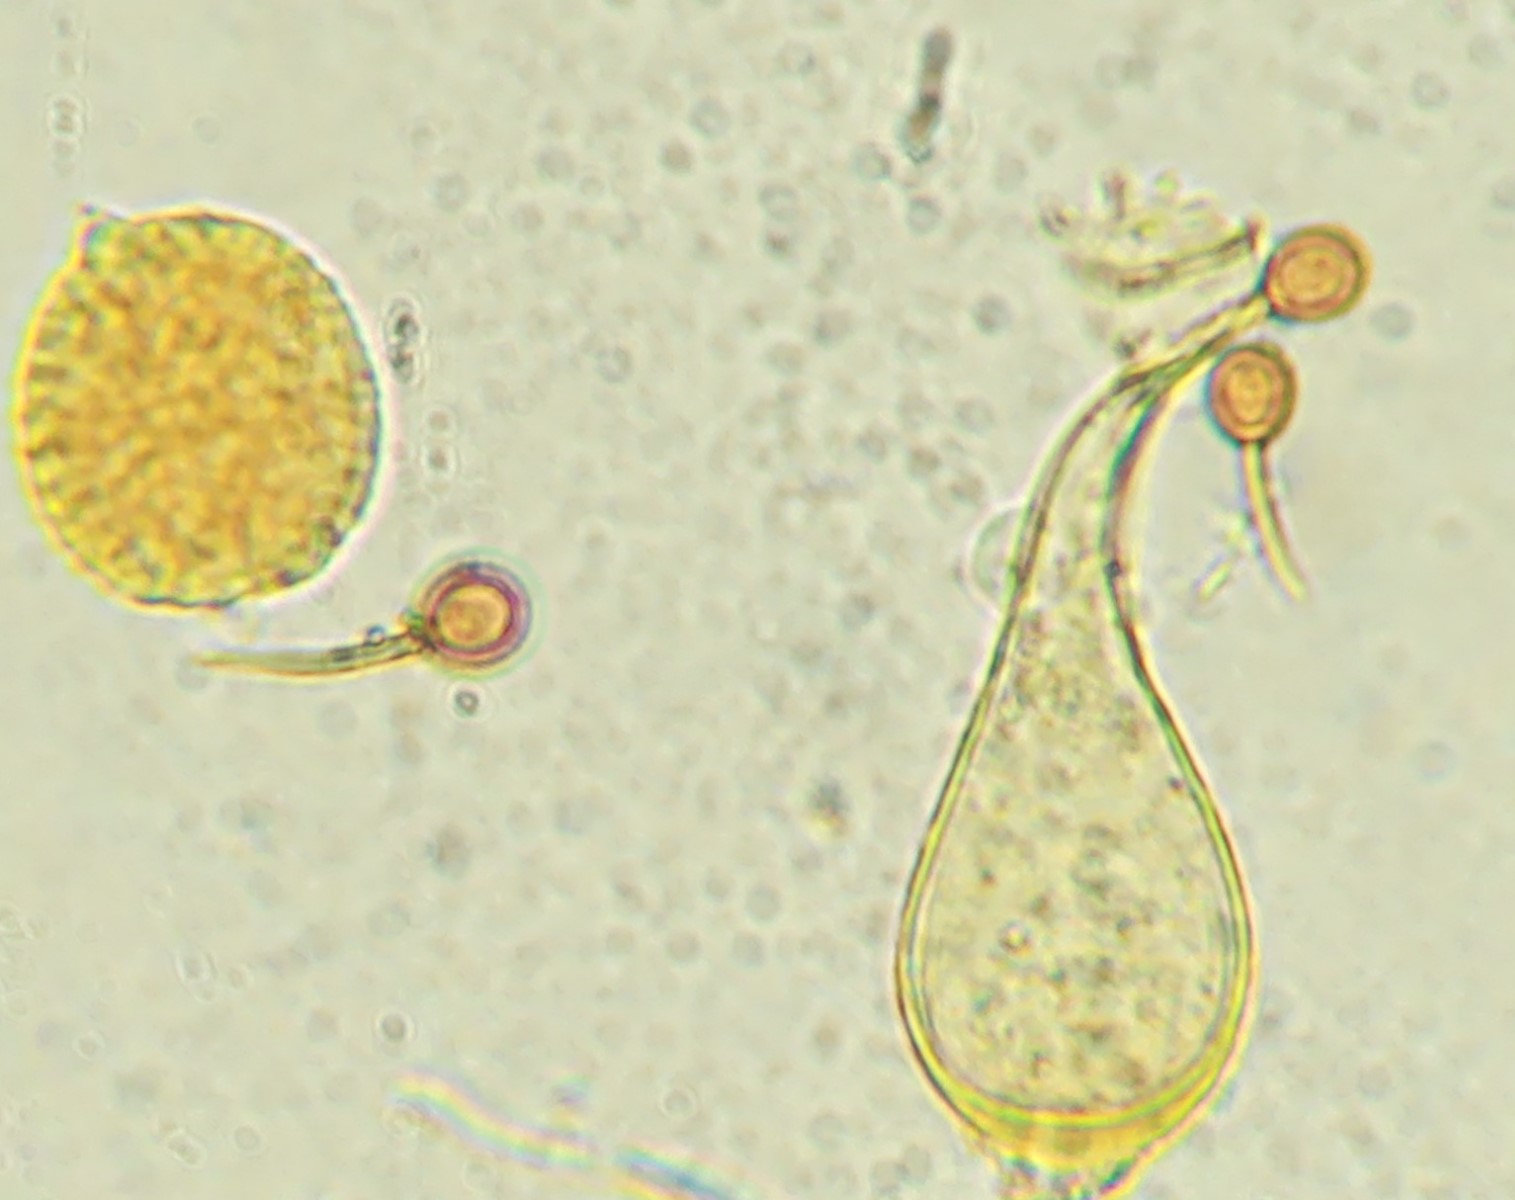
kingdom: Fungi
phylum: Basidiomycota
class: Pucciniomycetes
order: Pucciniales
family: Melampsoraceae
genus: Melampsora
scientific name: Melampsora
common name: skorperust
